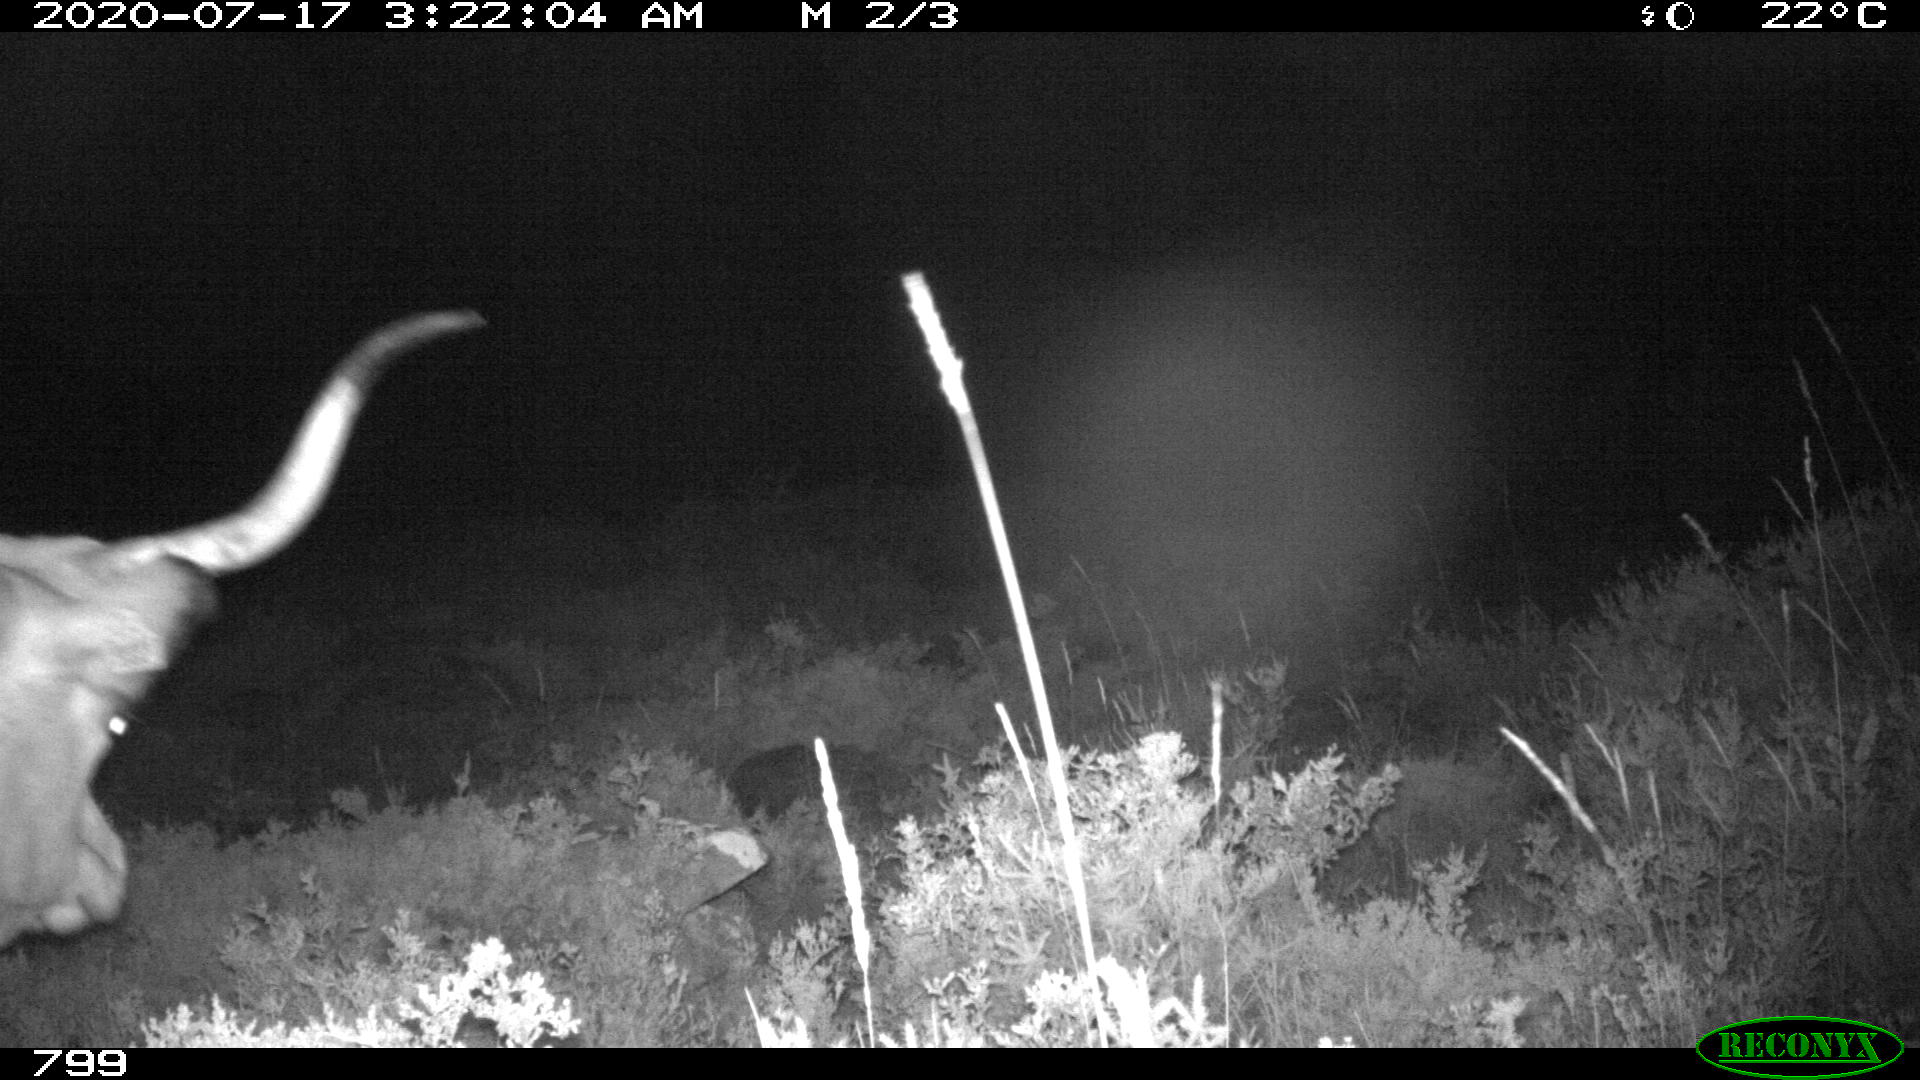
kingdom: Animalia
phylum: Chordata
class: Mammalia
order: Artiodactyla
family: Bovidae
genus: Bos
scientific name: Bos taurus
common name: Domesticated cattle
